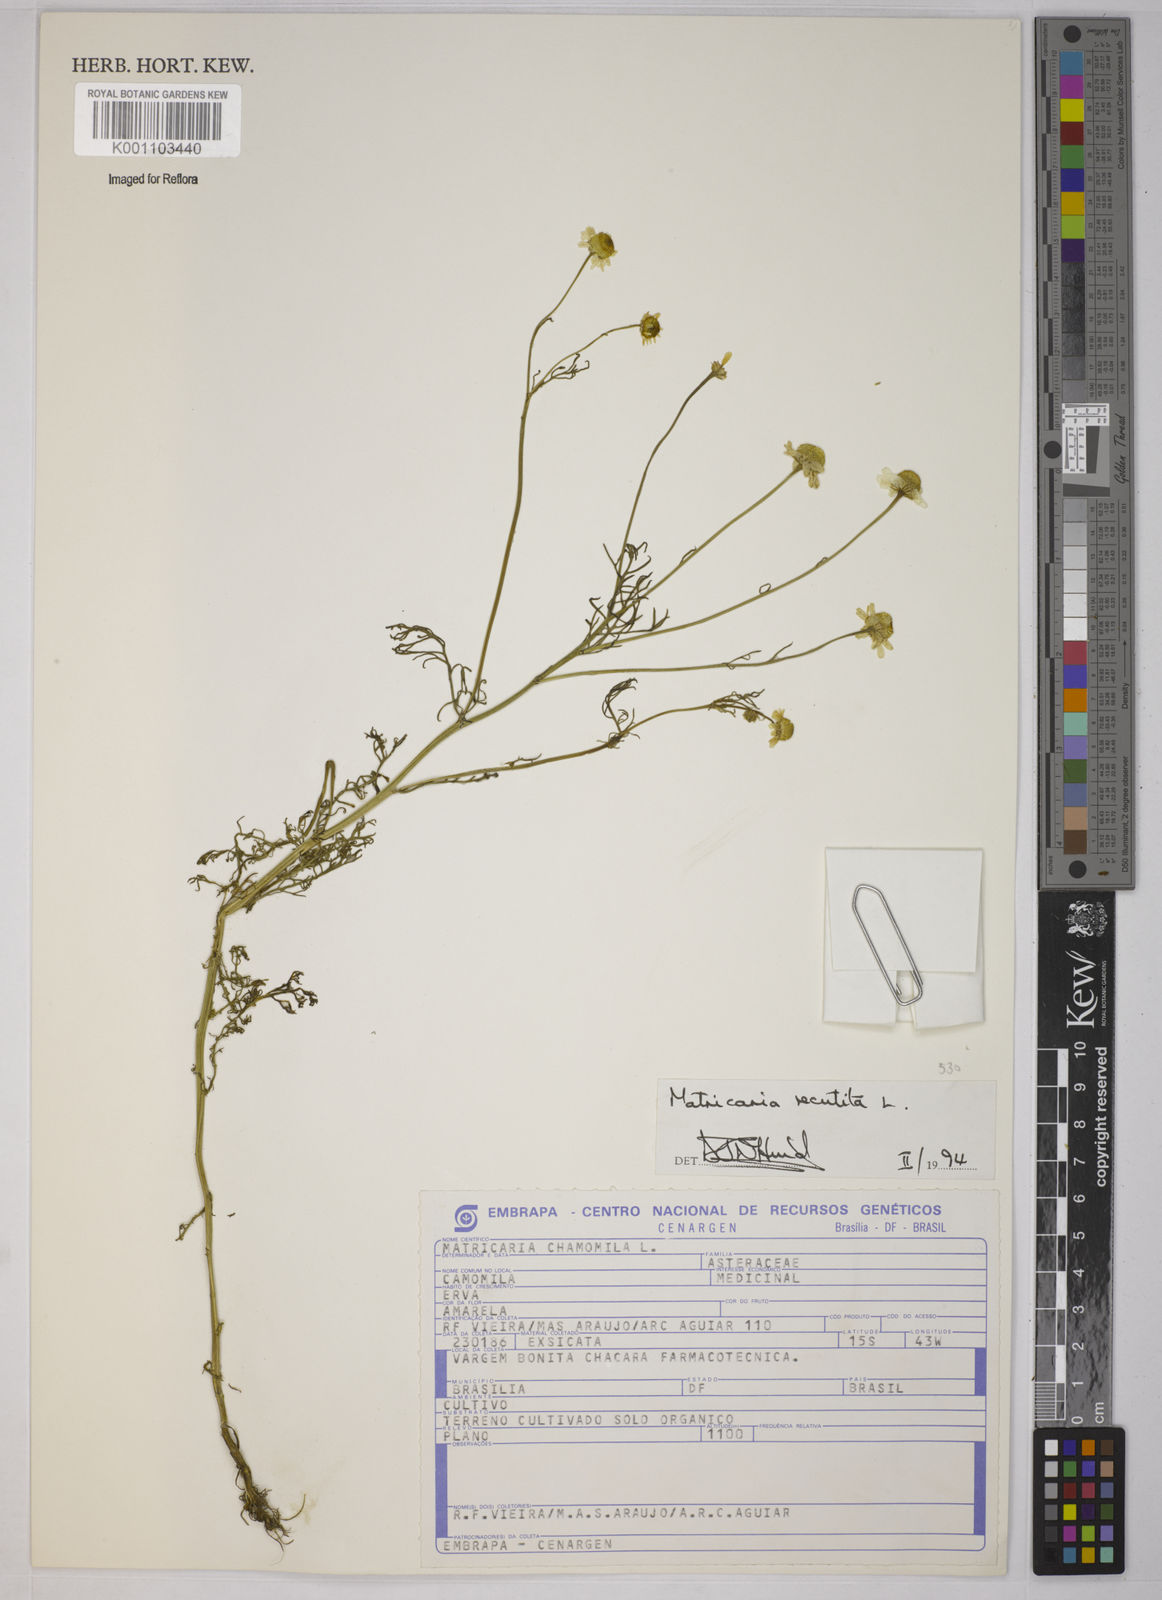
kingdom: Plantae
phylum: Tracheophyta
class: Magnoliopsida
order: Asterales
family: Asteraceae
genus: Matricaria
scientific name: Matricaria chamomilla
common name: Scented mayweed
